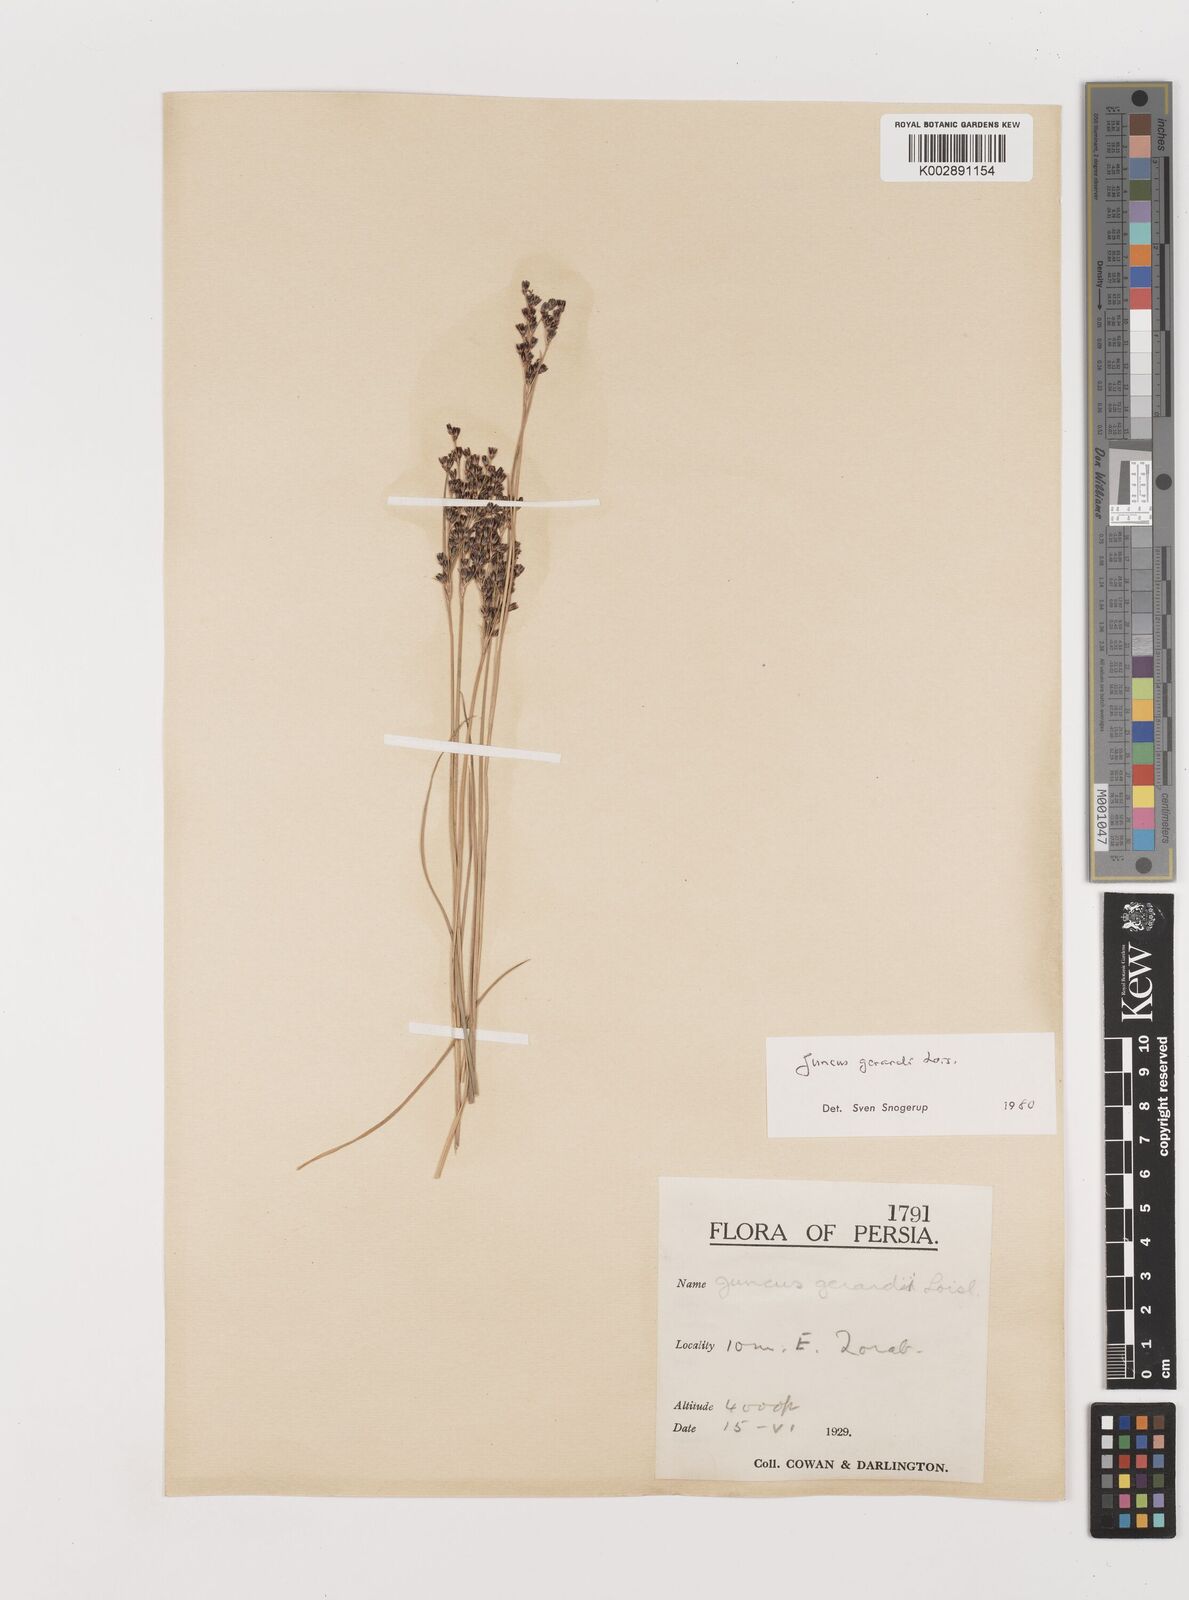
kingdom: Plantae
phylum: Tracheophyta
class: Liliopsida
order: Poales
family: Juncaceae
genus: Juncus
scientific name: Juncus gerardi
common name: Saltmarsh rush
